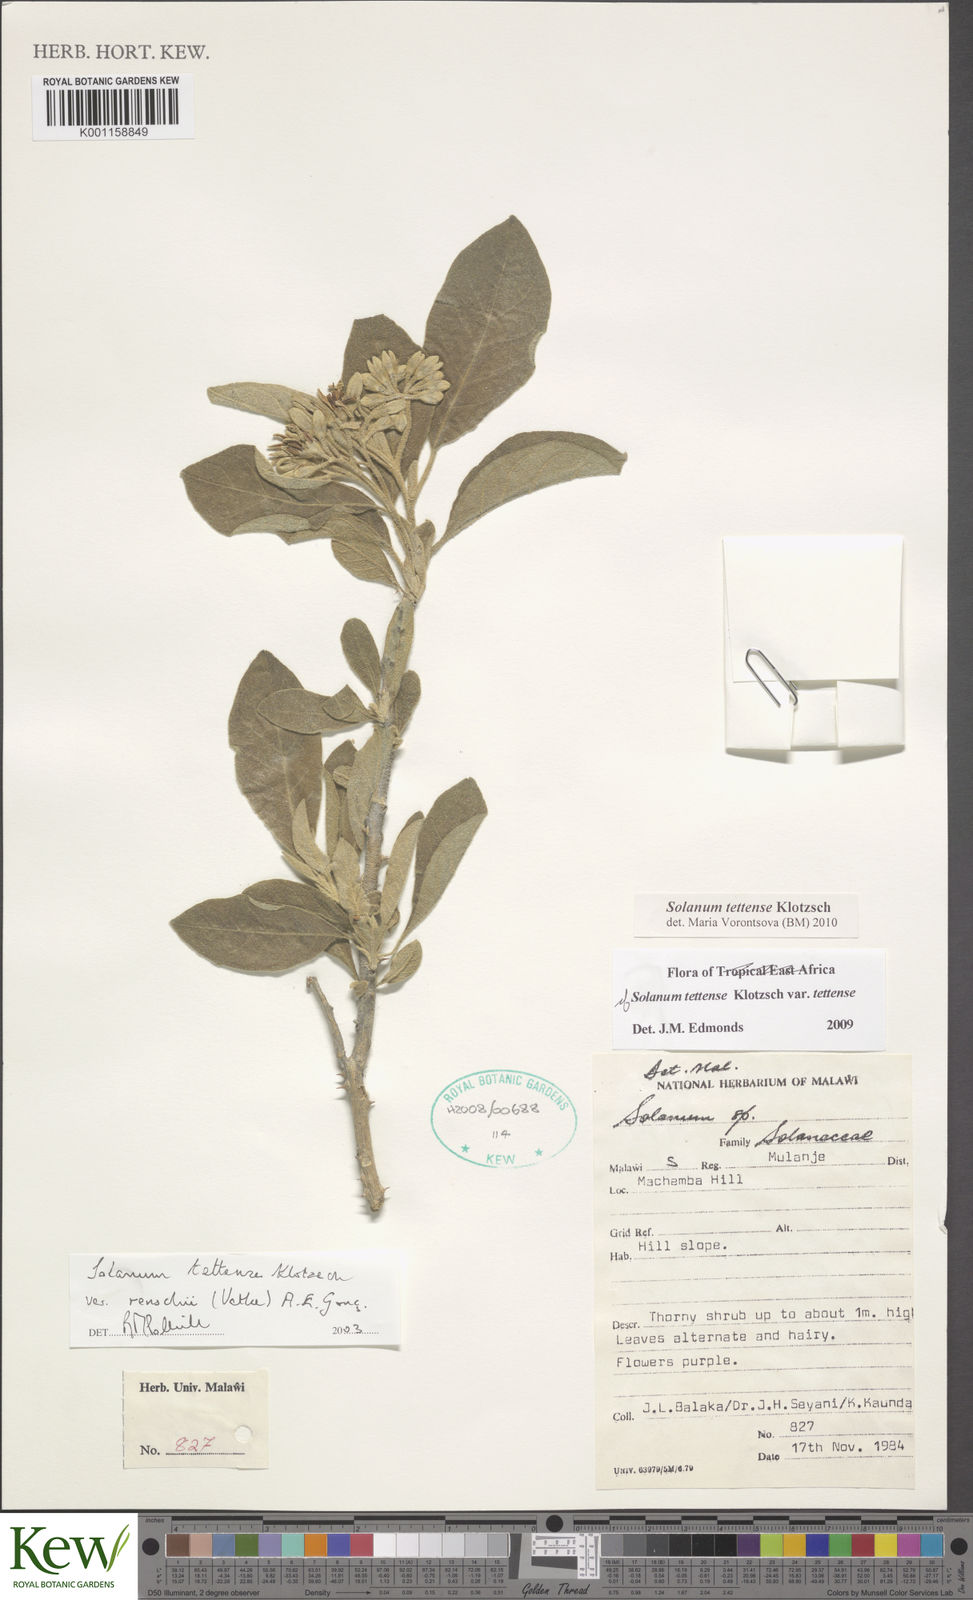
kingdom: Plantae
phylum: Tracheophyta
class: Magnoliopsida
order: Solanales
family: Solanaceae
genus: Solanum
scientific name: Solanum tettense
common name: Mozambique bitter apple
